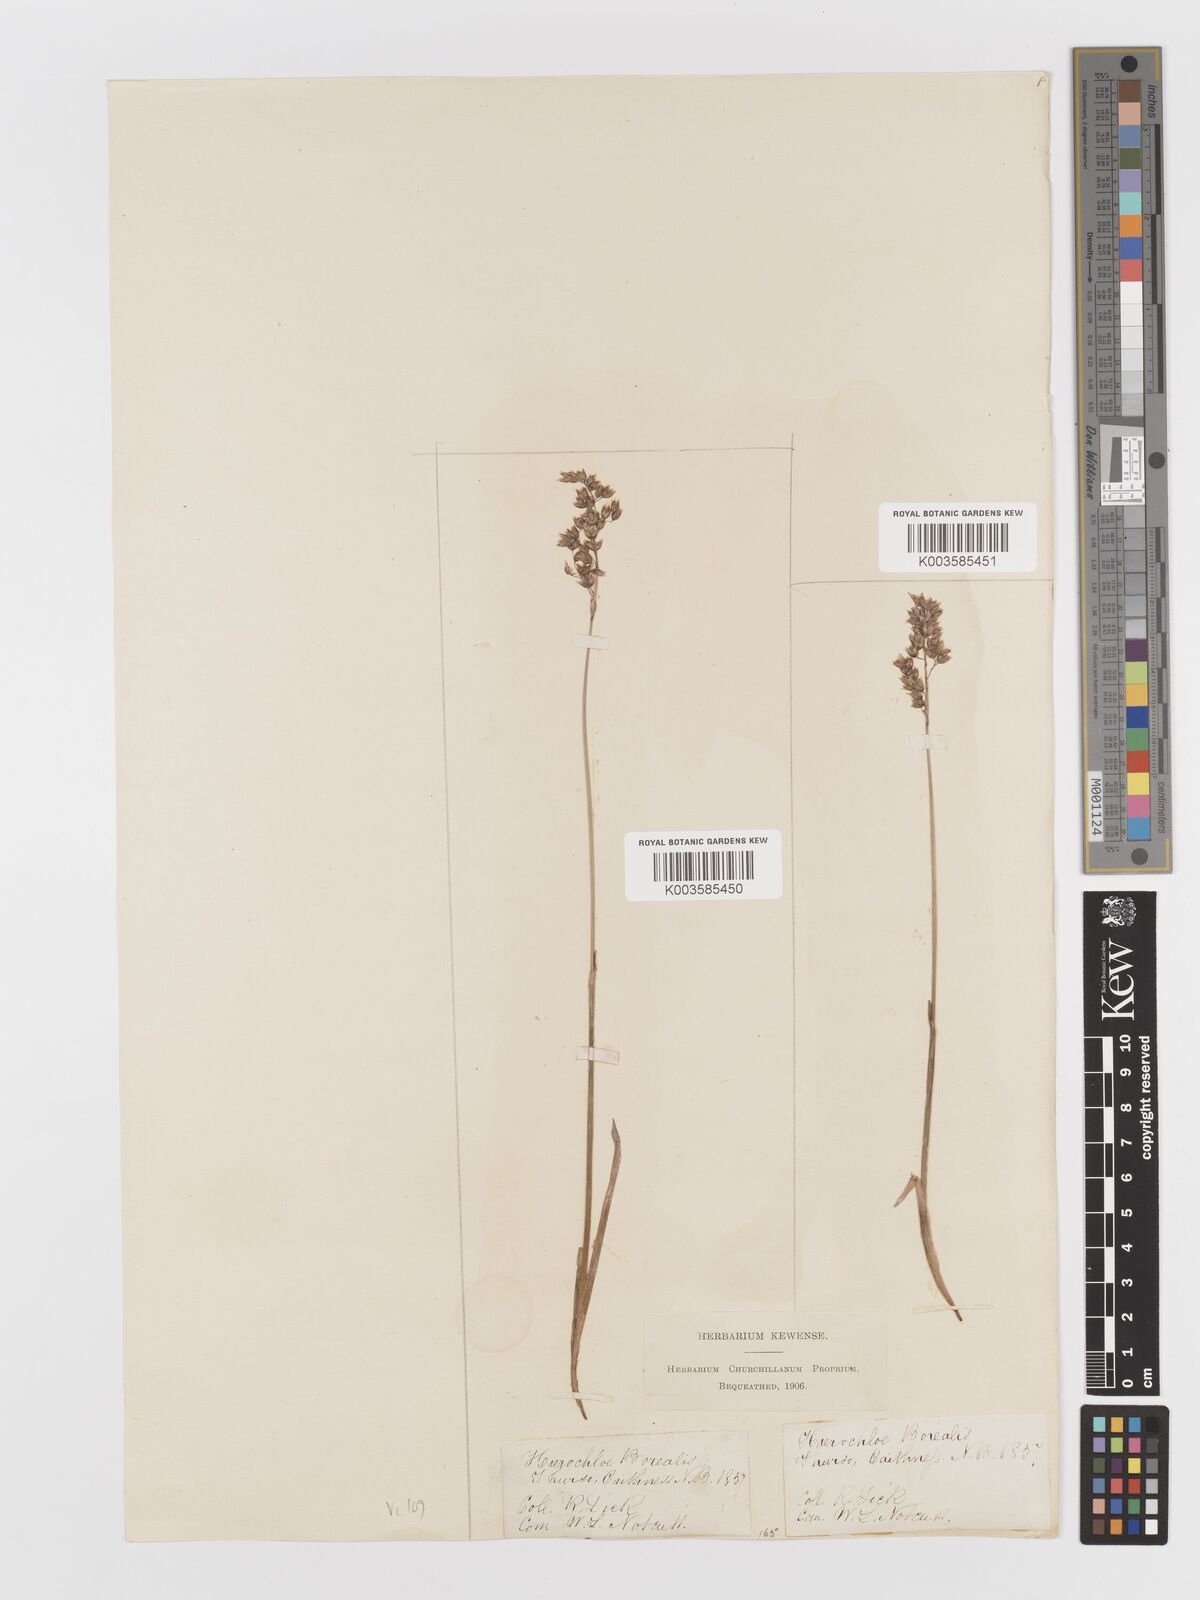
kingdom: Plantae
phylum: Tracheophyta
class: Liliopsida
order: Poales
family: Poaceae
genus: Anthoxanthum
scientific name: Anthoxanthum nitens
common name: Holy grass
